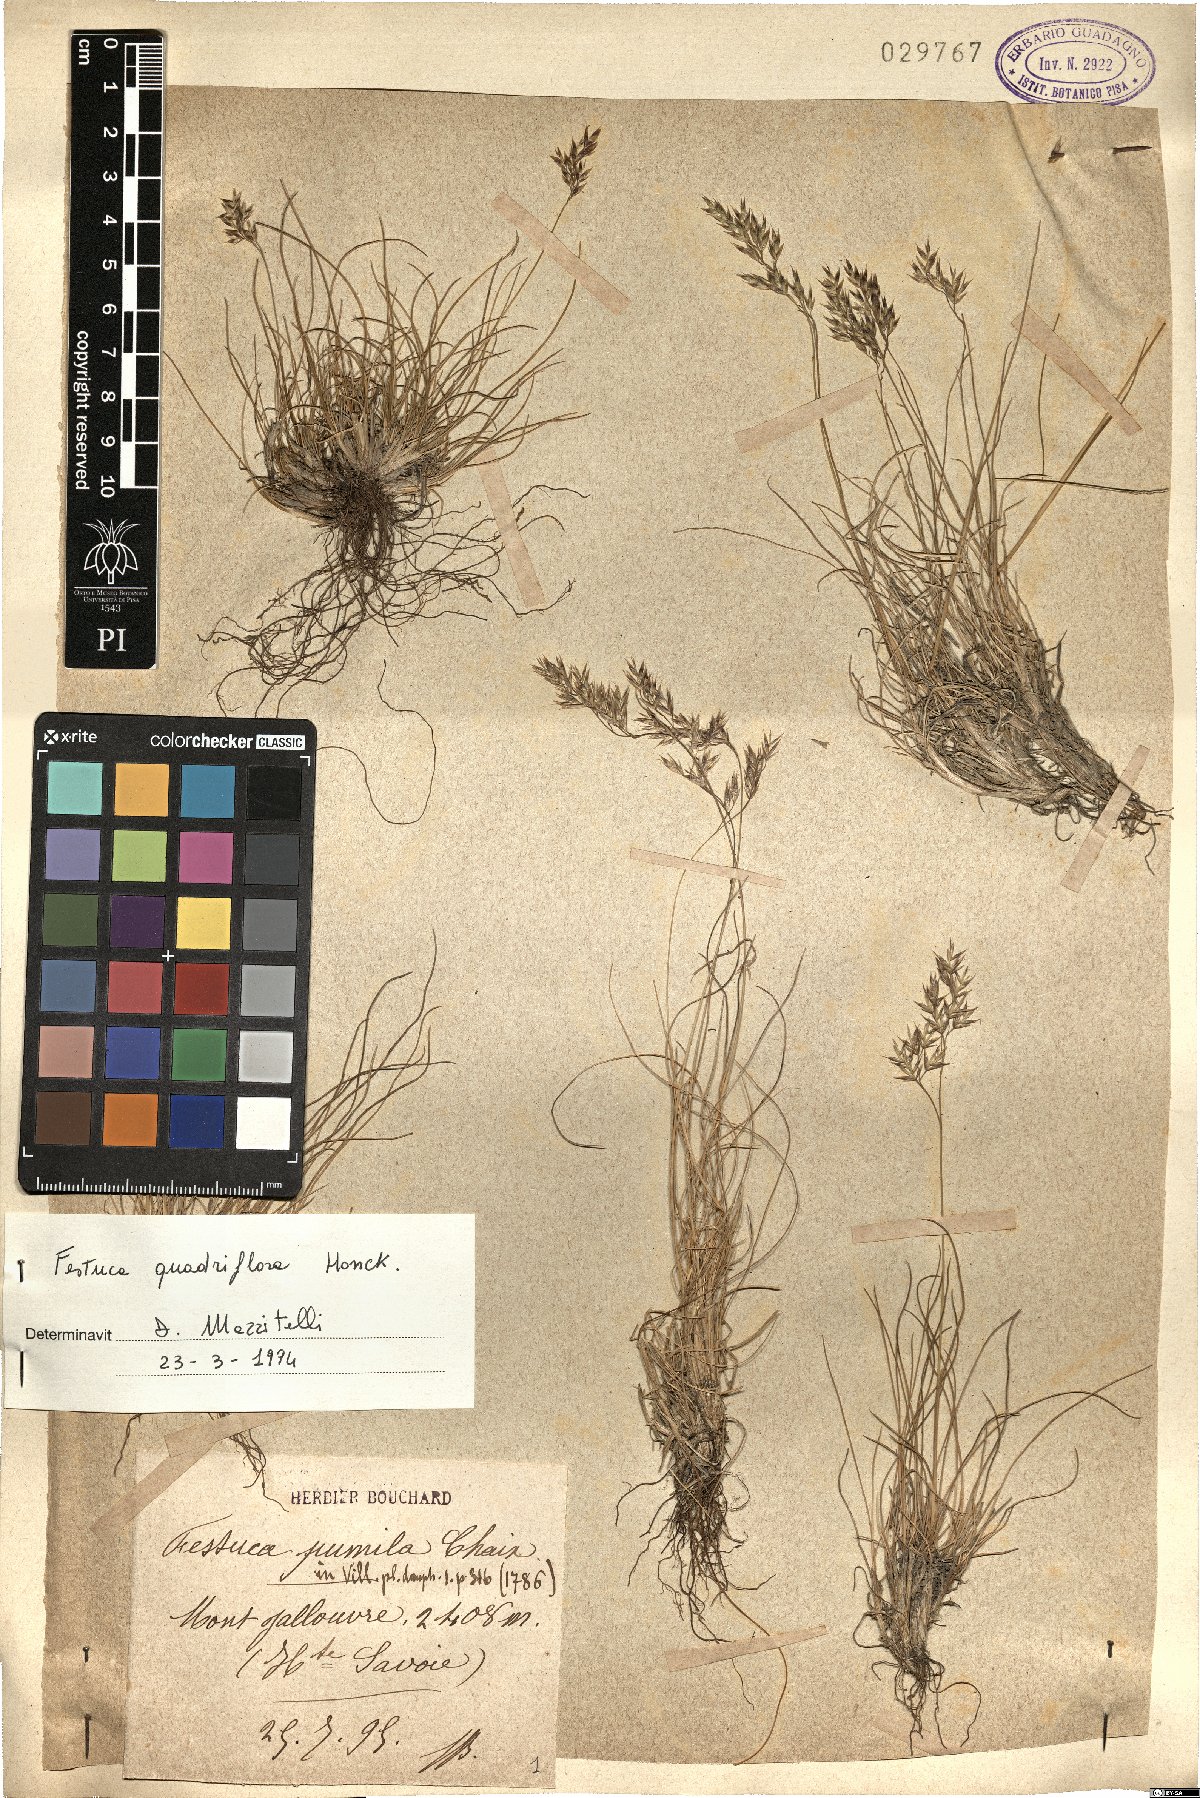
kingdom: Plantae
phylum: Tracheophyta
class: Liliopsida
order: Poales
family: Poaceae
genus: Festuca
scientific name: Festuca quadriflora
